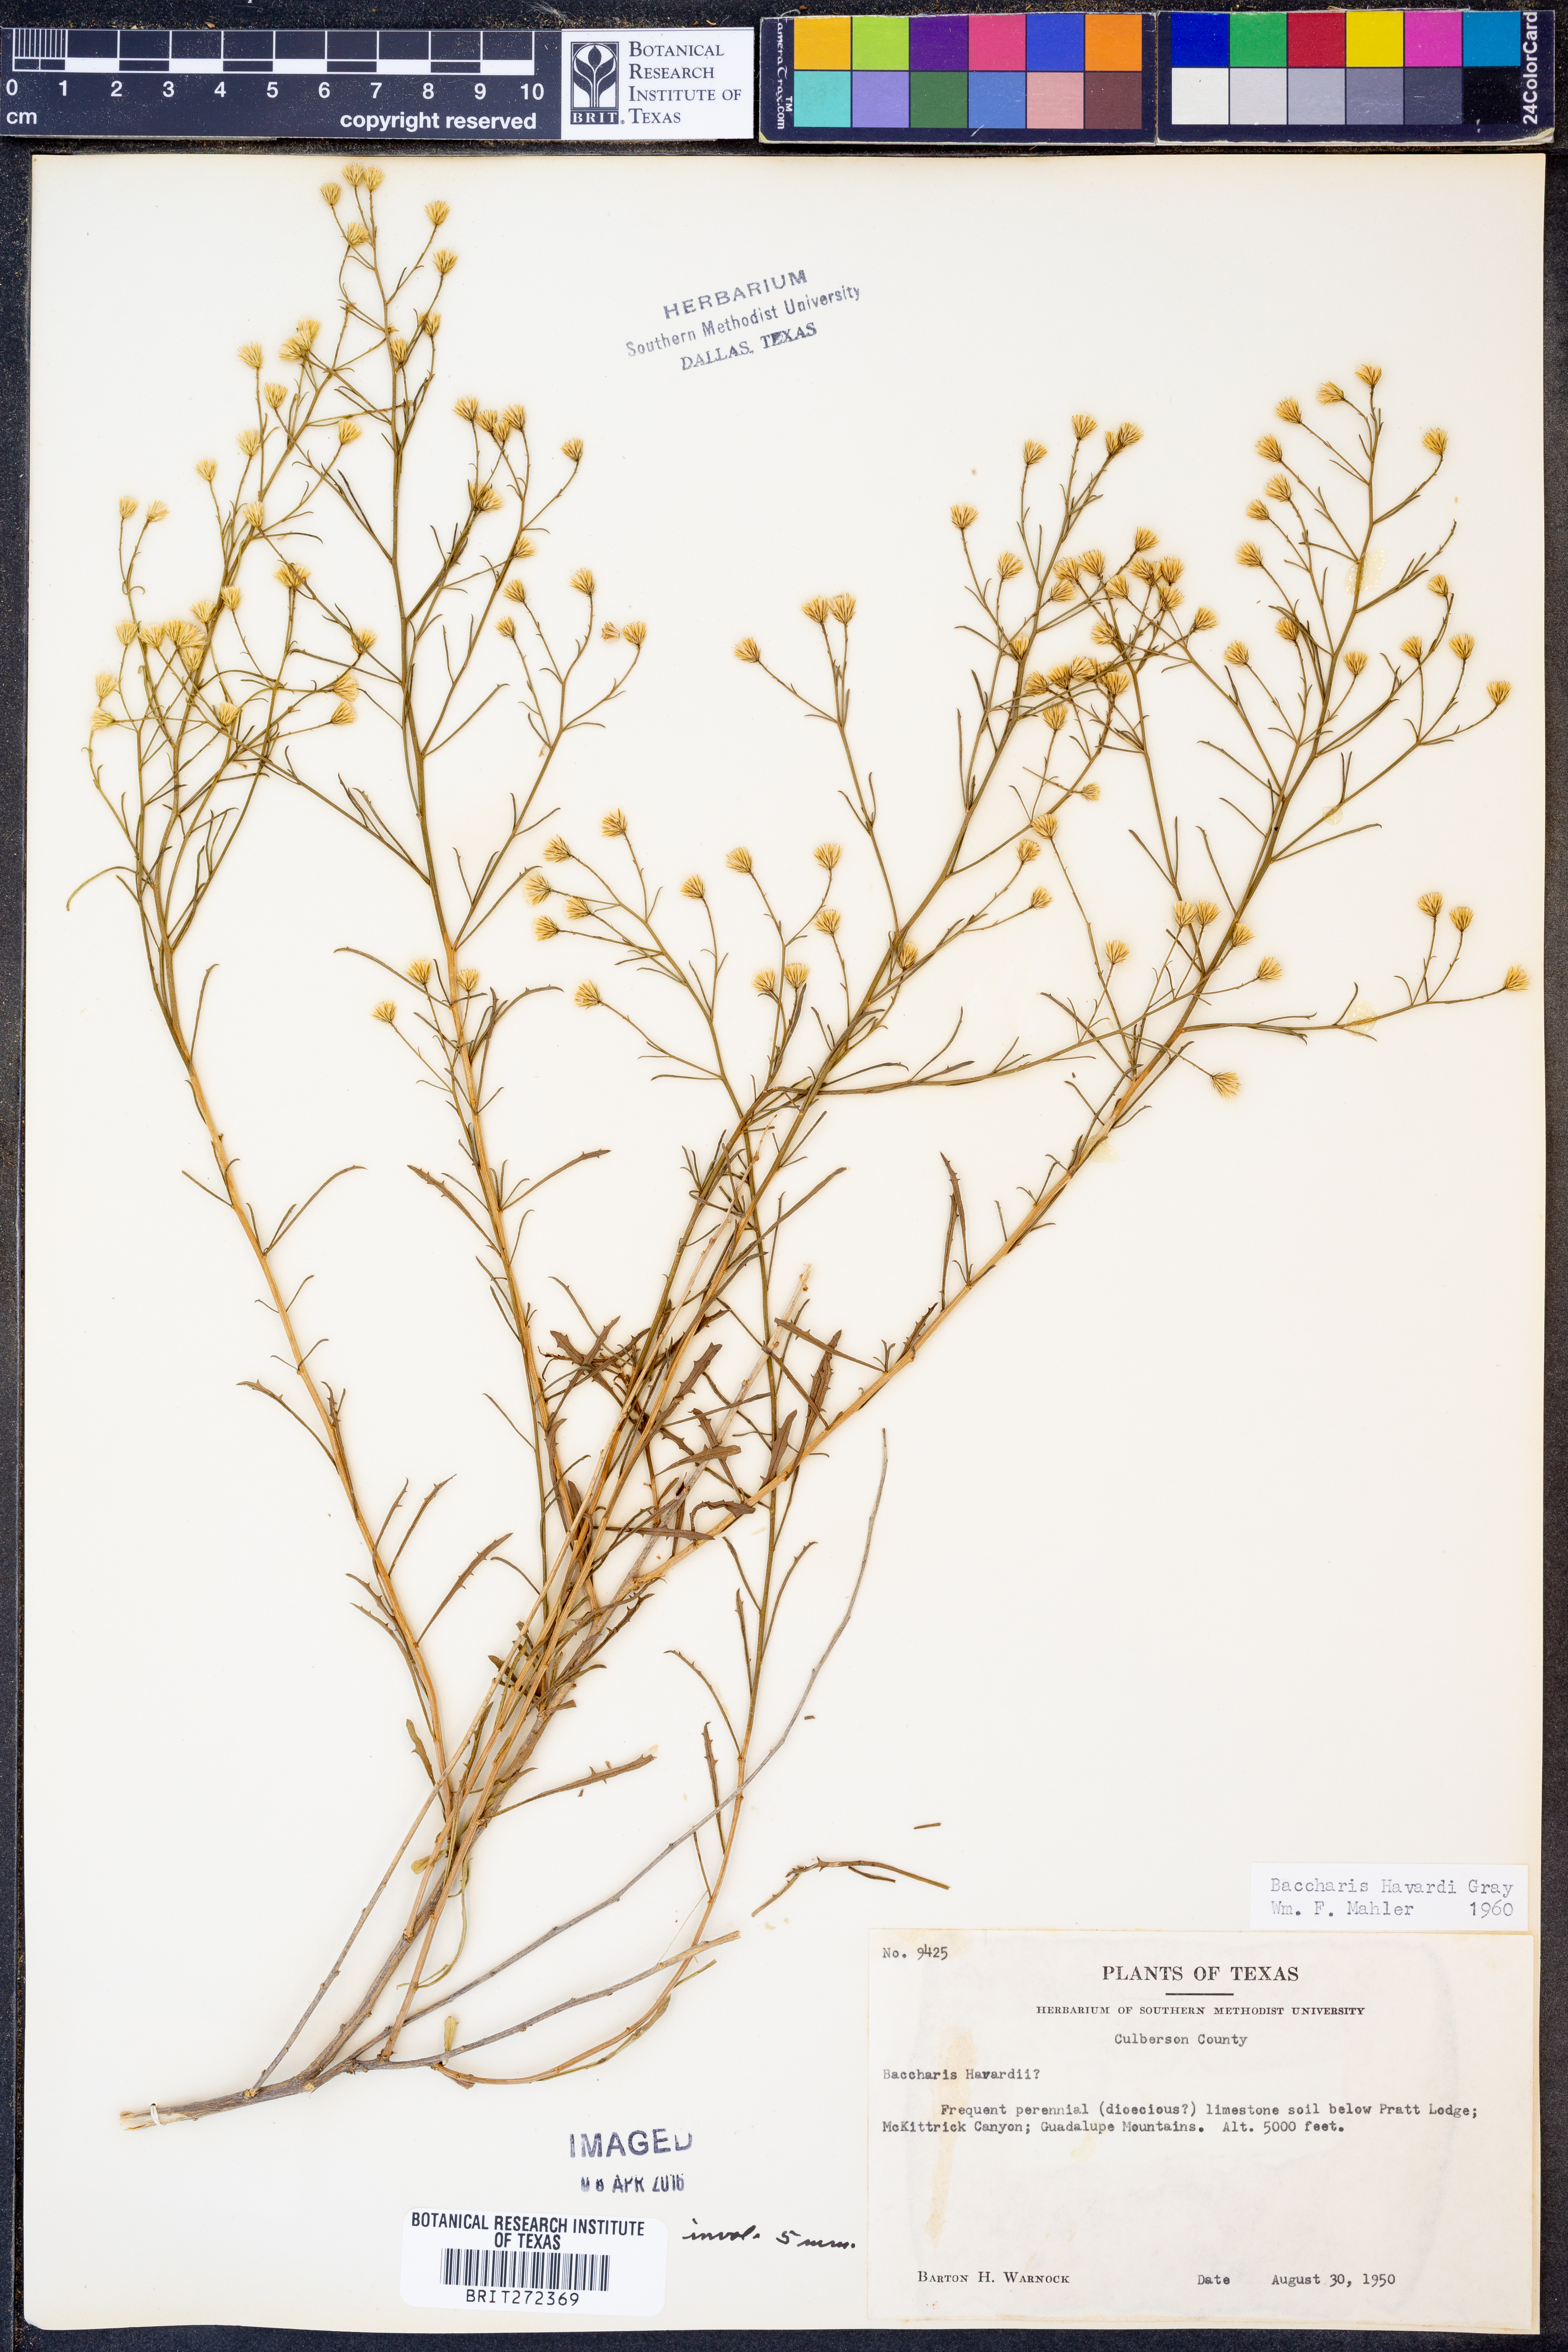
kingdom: Plantae
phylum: Tracheophyta
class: Magnoliopsida
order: Asterales
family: Asteraceae
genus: Baccharis
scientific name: Baccharis havardii
